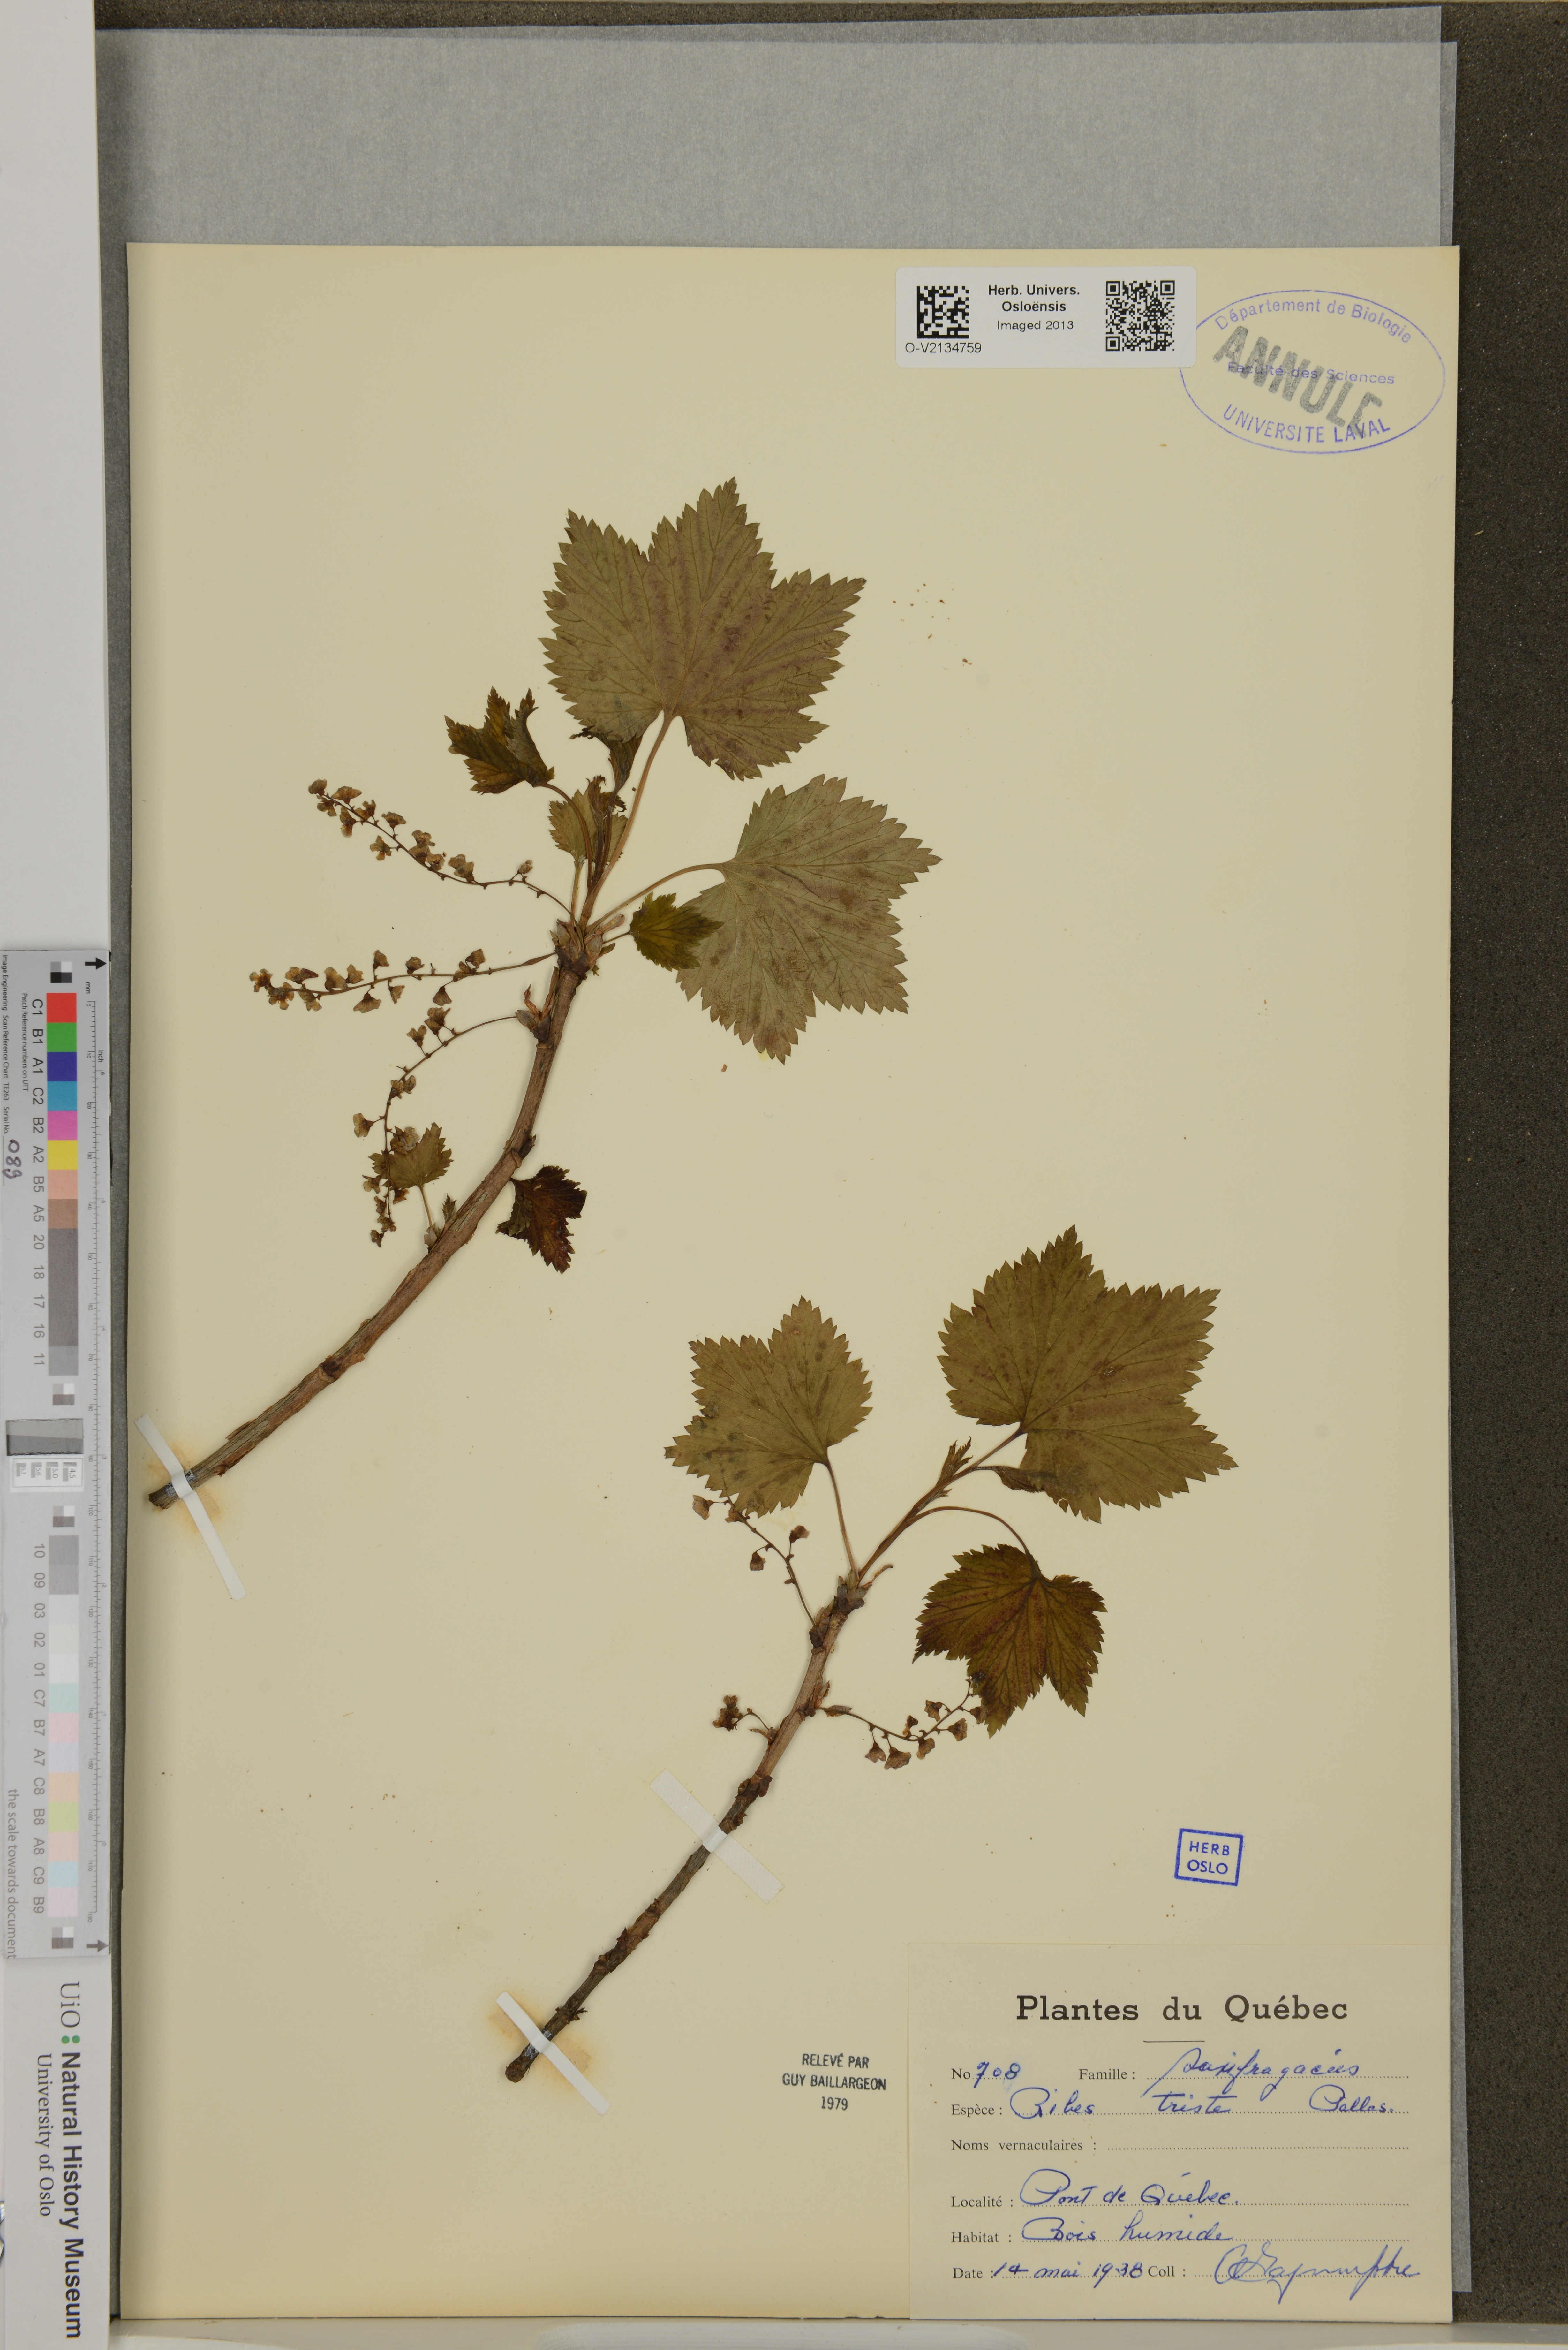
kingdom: Plantae
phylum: Tracheophyta
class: Magnoliopsida
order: Saxifragales
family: Grossulariaceae
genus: Ribes
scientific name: Ribes triste
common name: Swamp red currant
